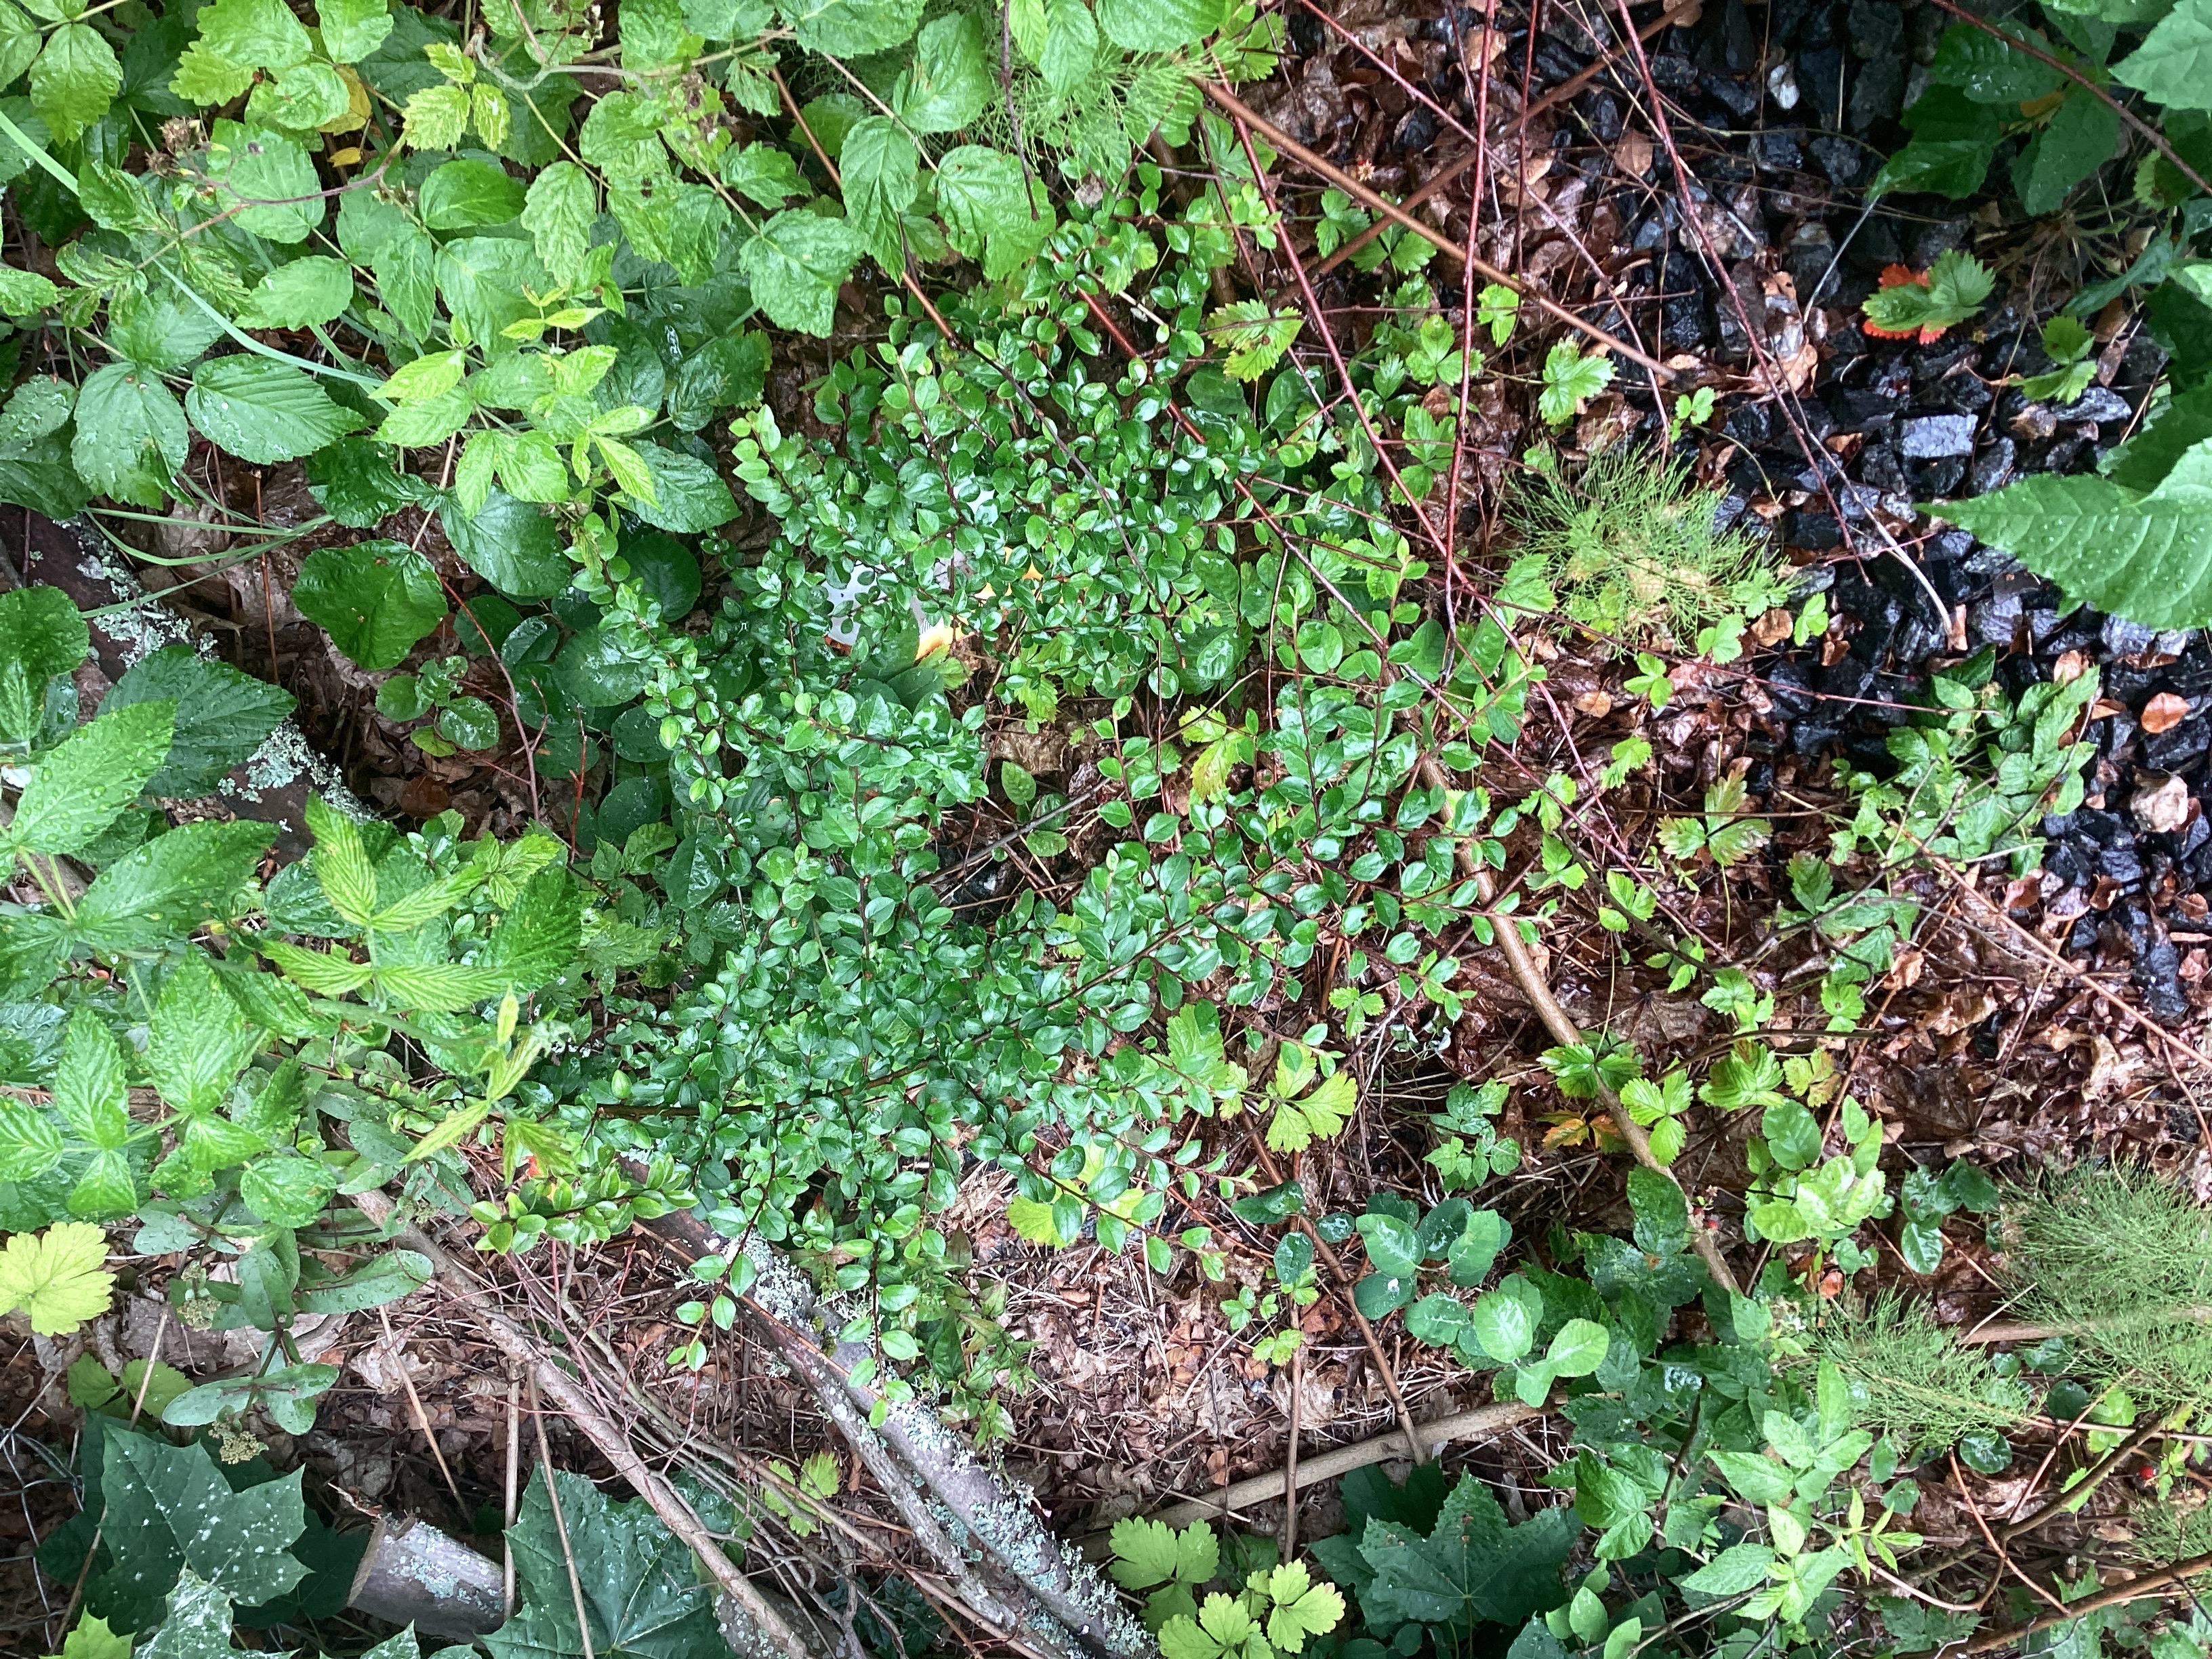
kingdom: Plantae
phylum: Tracheophyta
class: Magnoliopsida
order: Rosales
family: Rosaceae
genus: Cotoneaster
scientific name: Cotoneaster divaricatus
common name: sprikemispel
